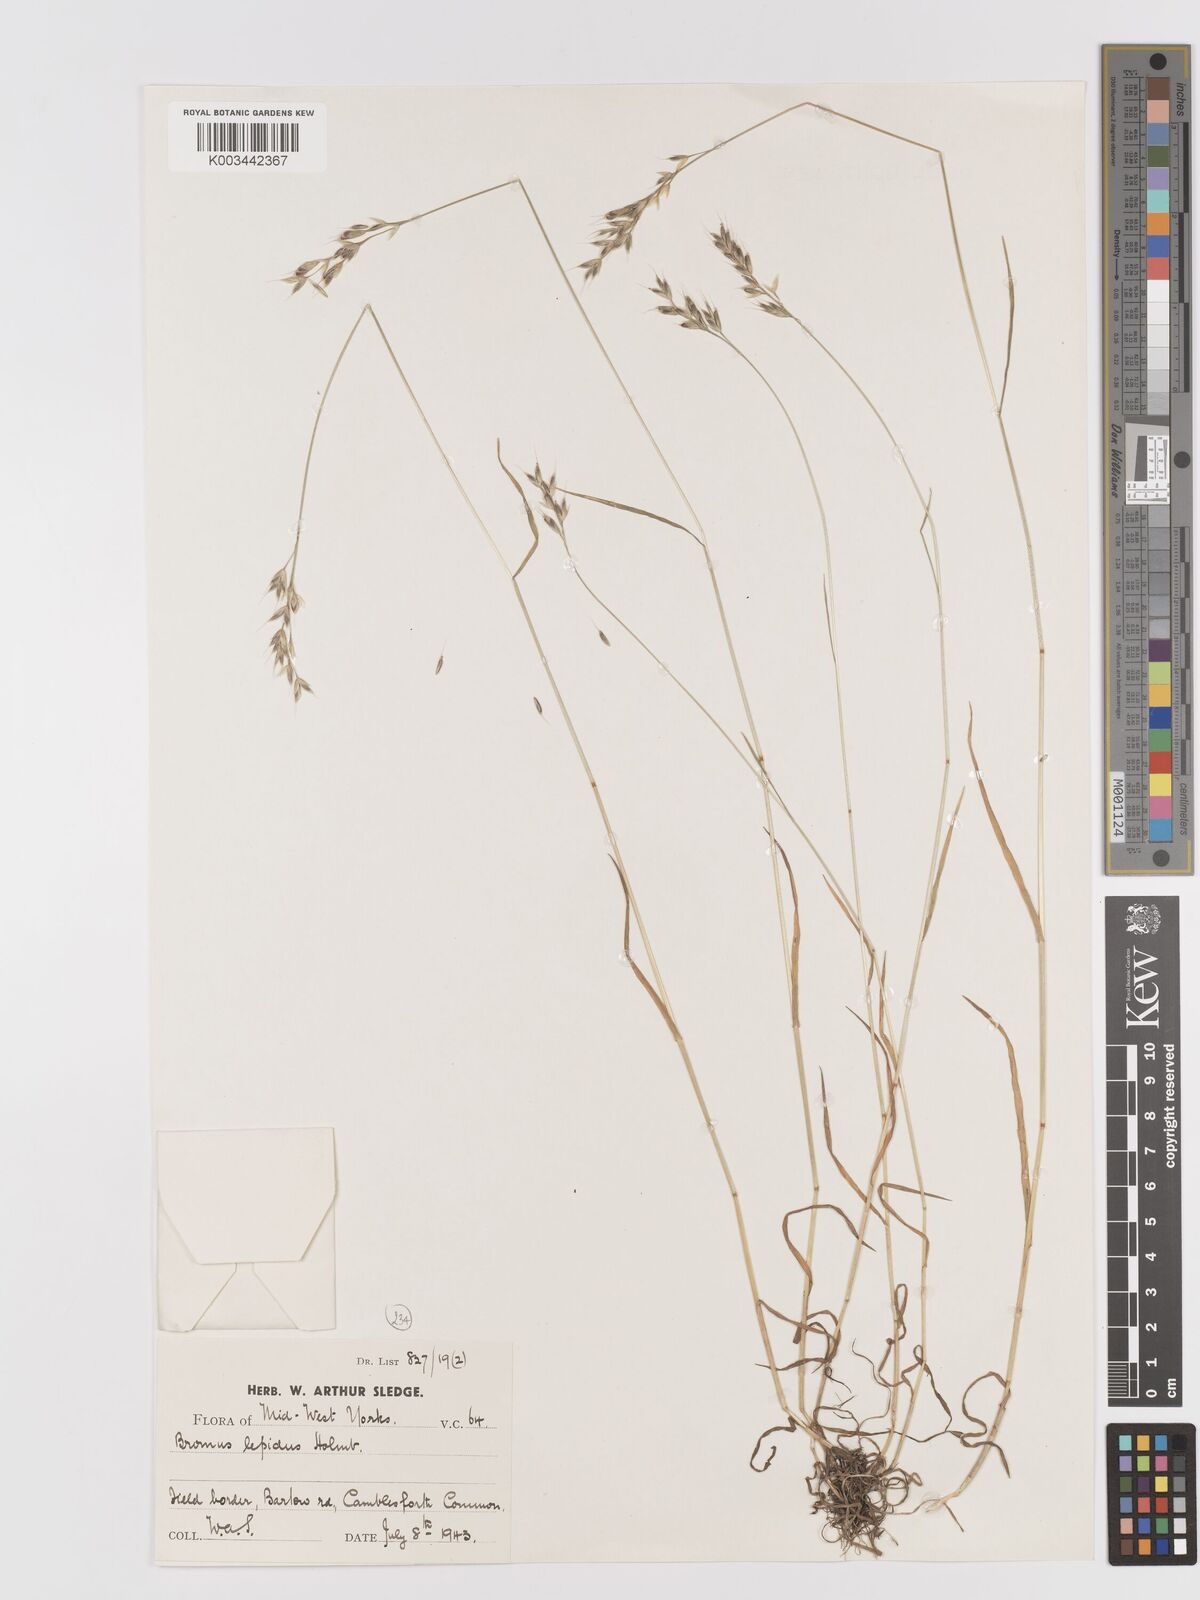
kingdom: Plantae
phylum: Tracheophyta
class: Liliopsida
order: Poales
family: Poaceae
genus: Bromus
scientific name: Bromus lepidus
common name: Slender soft-brome
